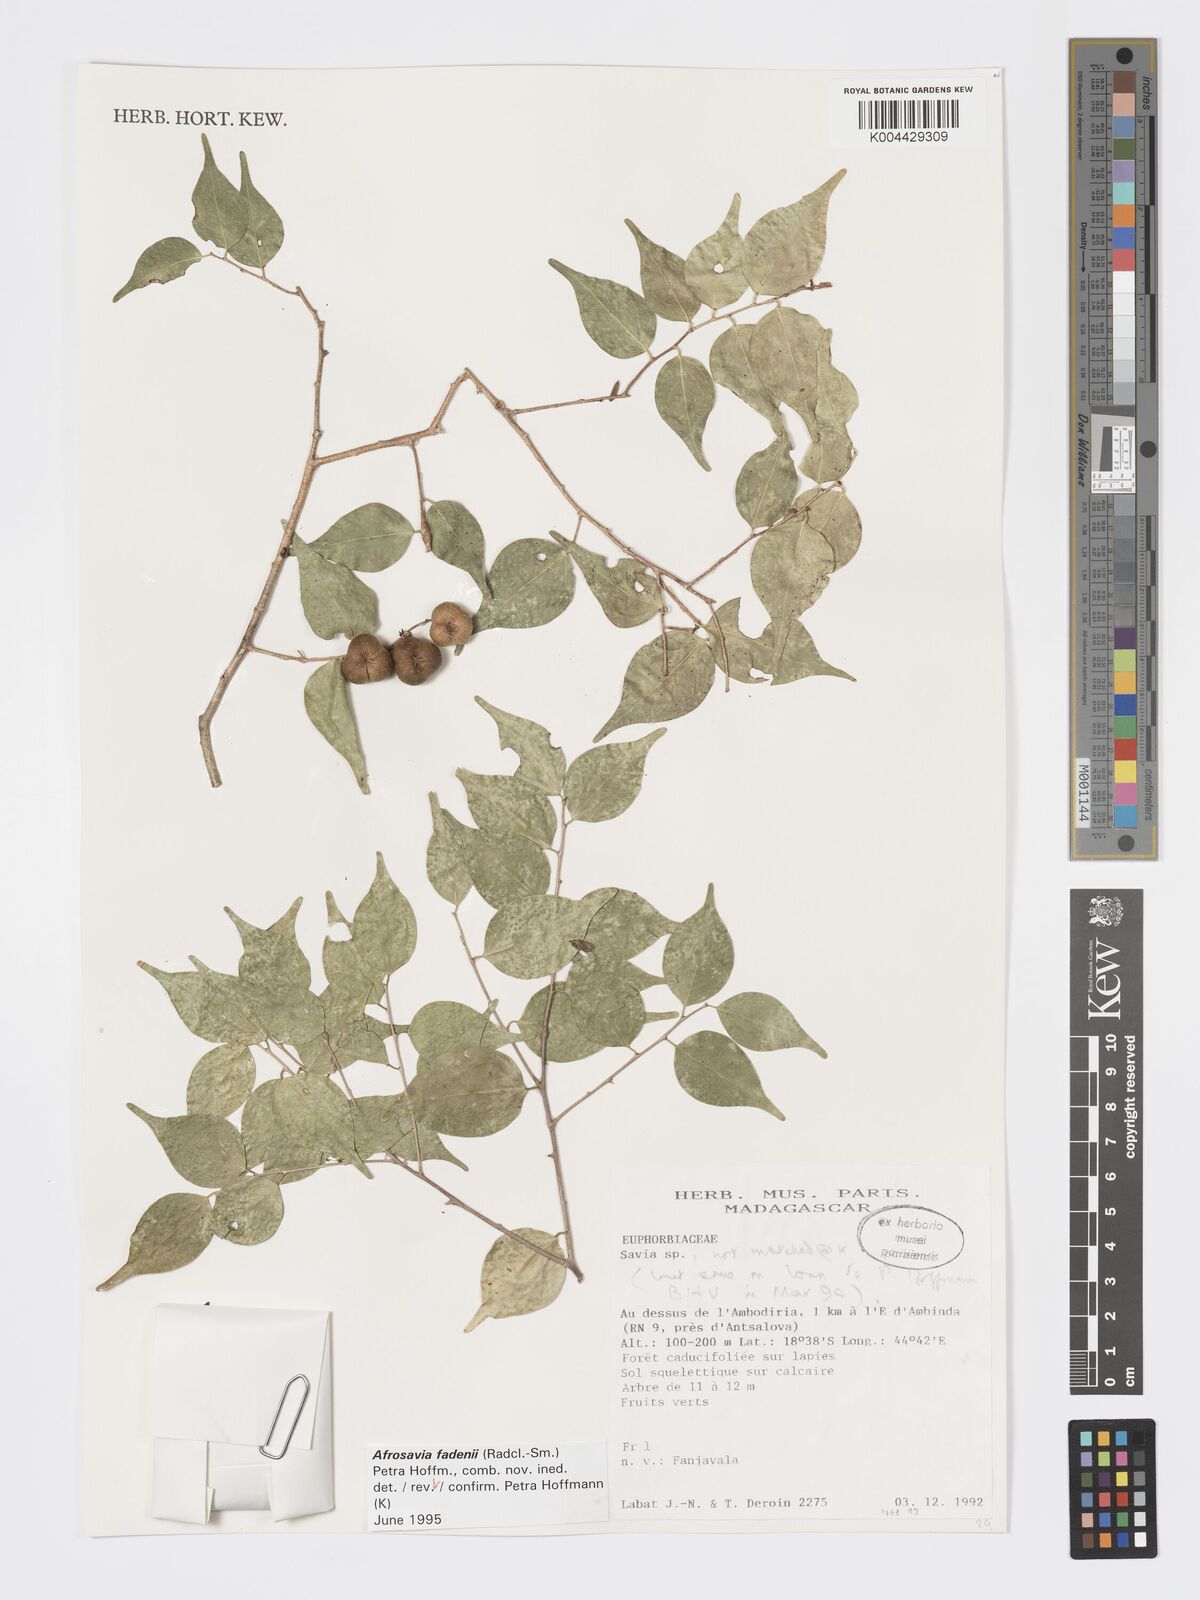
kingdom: Plantae
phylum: Tracheophyta
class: Magnoliopsida
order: Malpighiales
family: Phyllanthaceae
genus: Wielandia
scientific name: Wielandia fadenii
